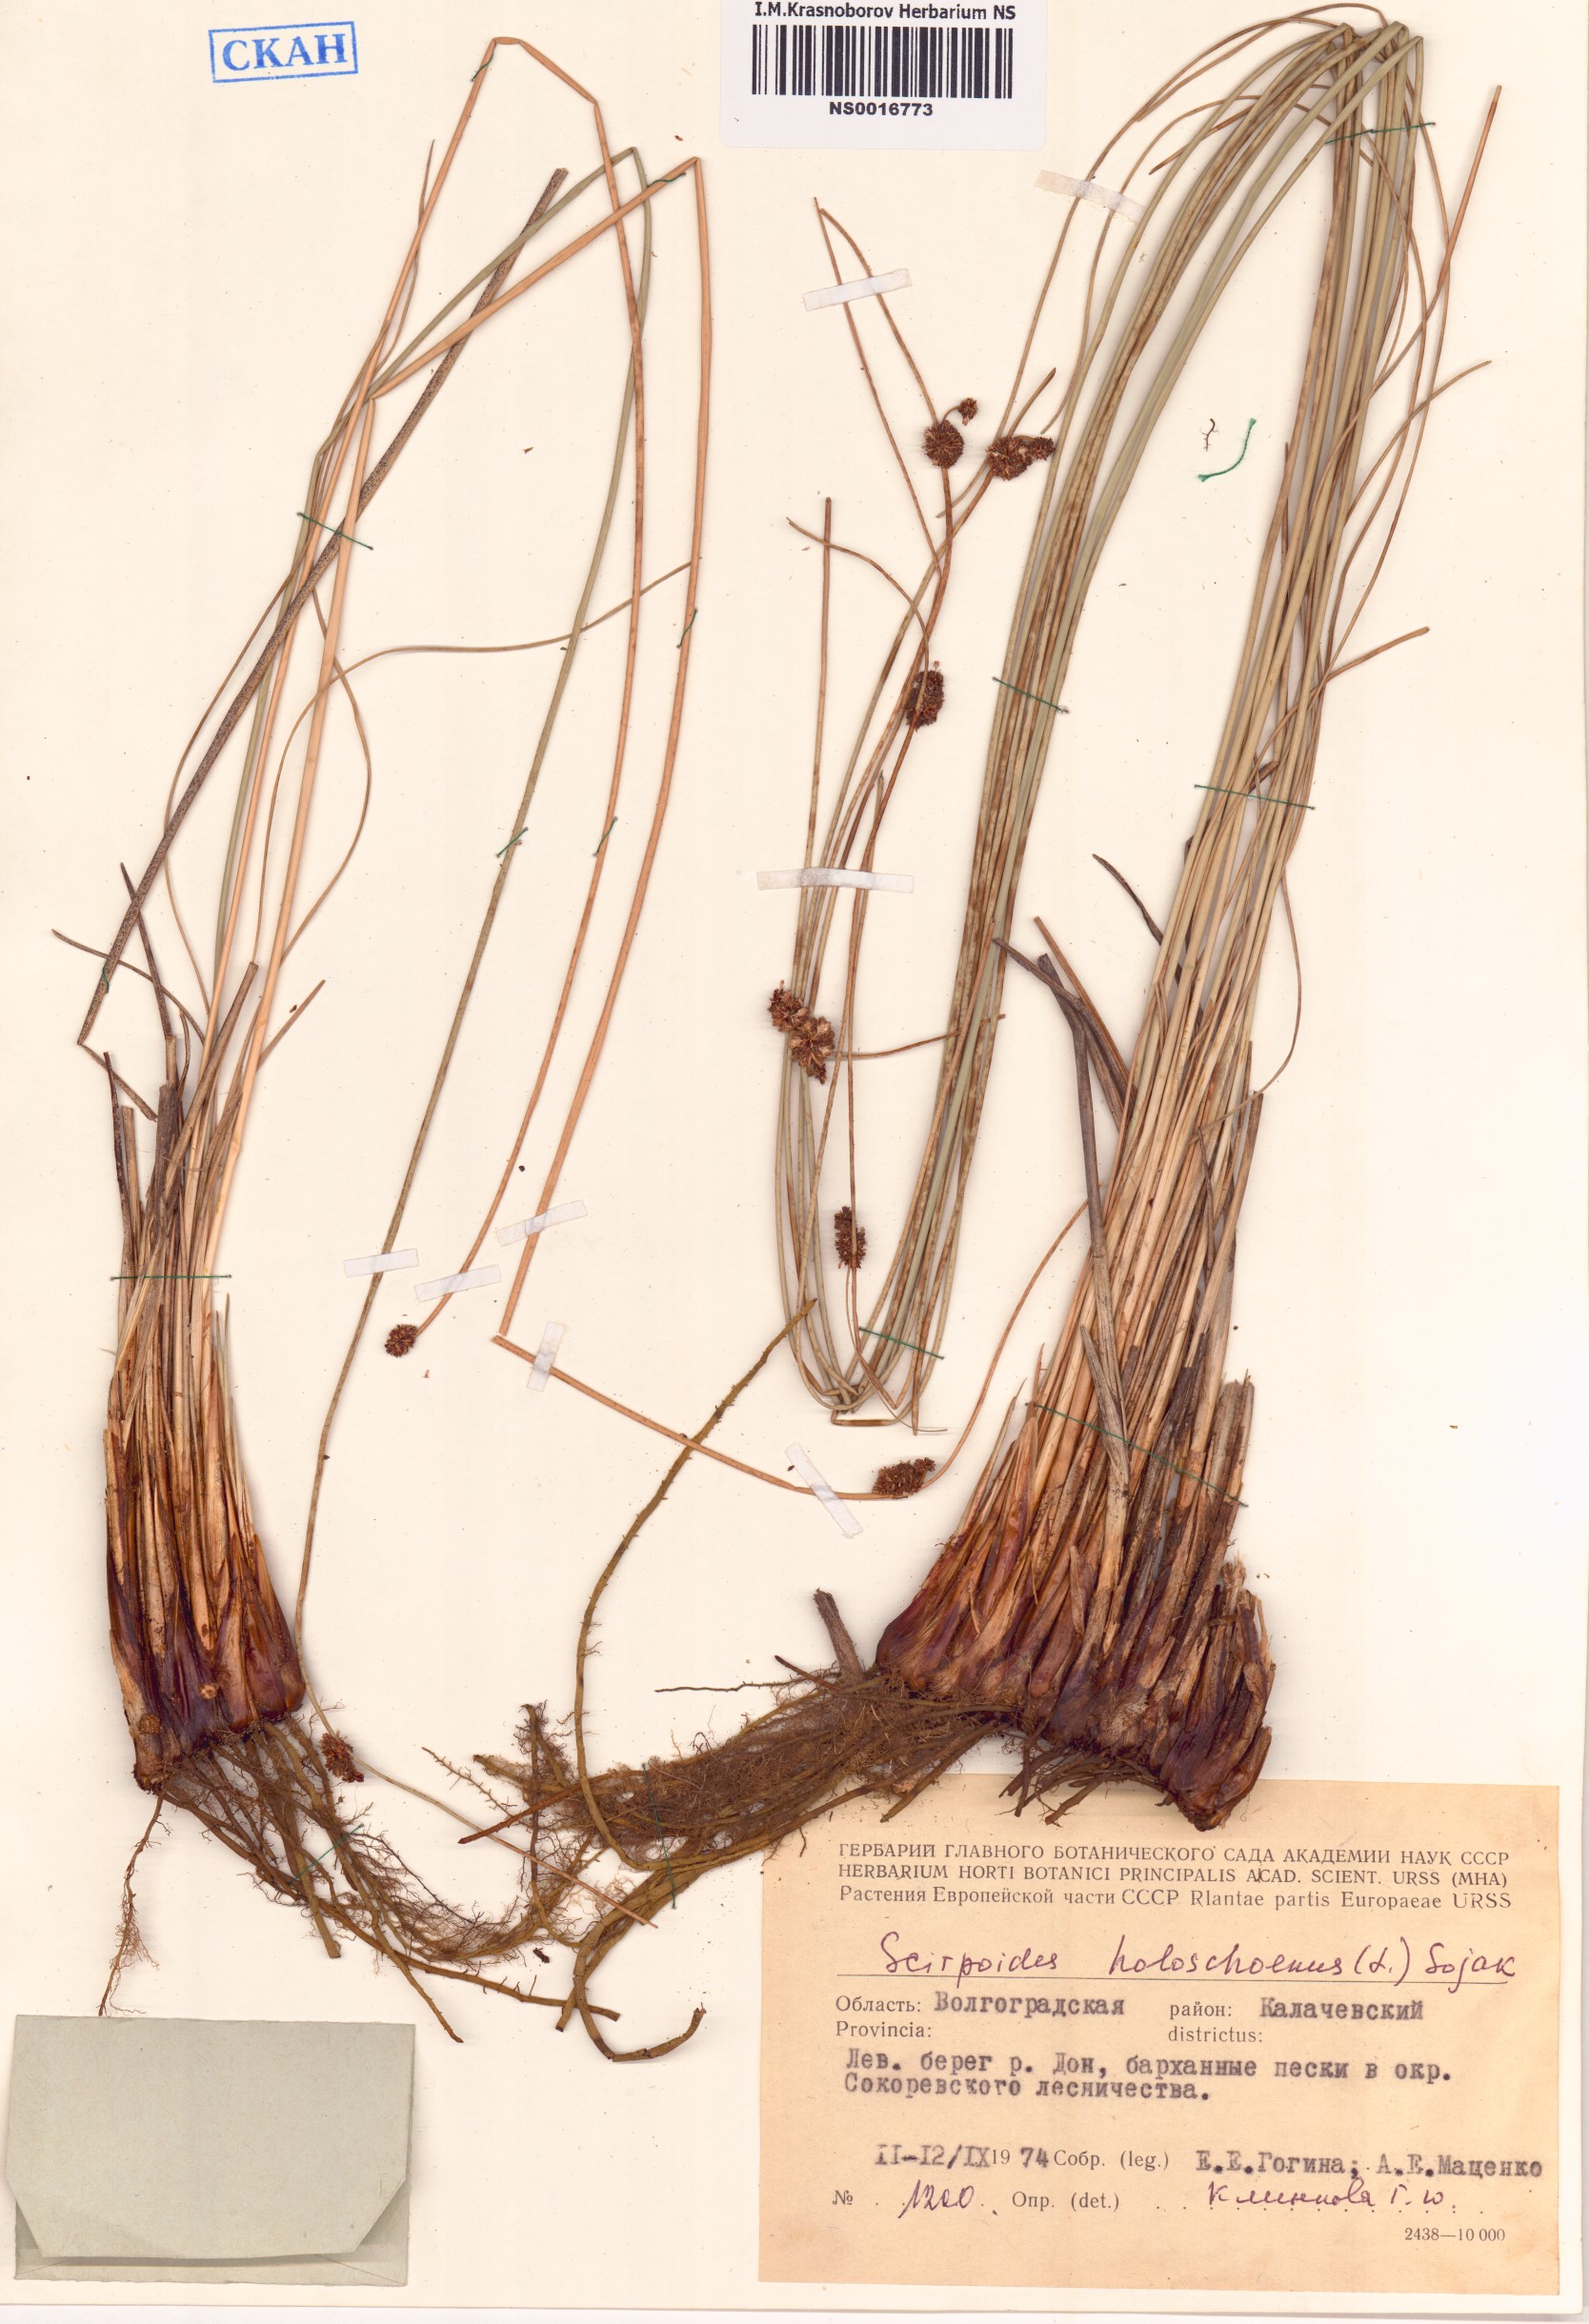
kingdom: Plantae
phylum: Tracheophyta
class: Liliopsida
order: Poales
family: Cyperaceae
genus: Scirpoides
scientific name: Scirpoides holoschoenus
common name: Round-headed club-rush
